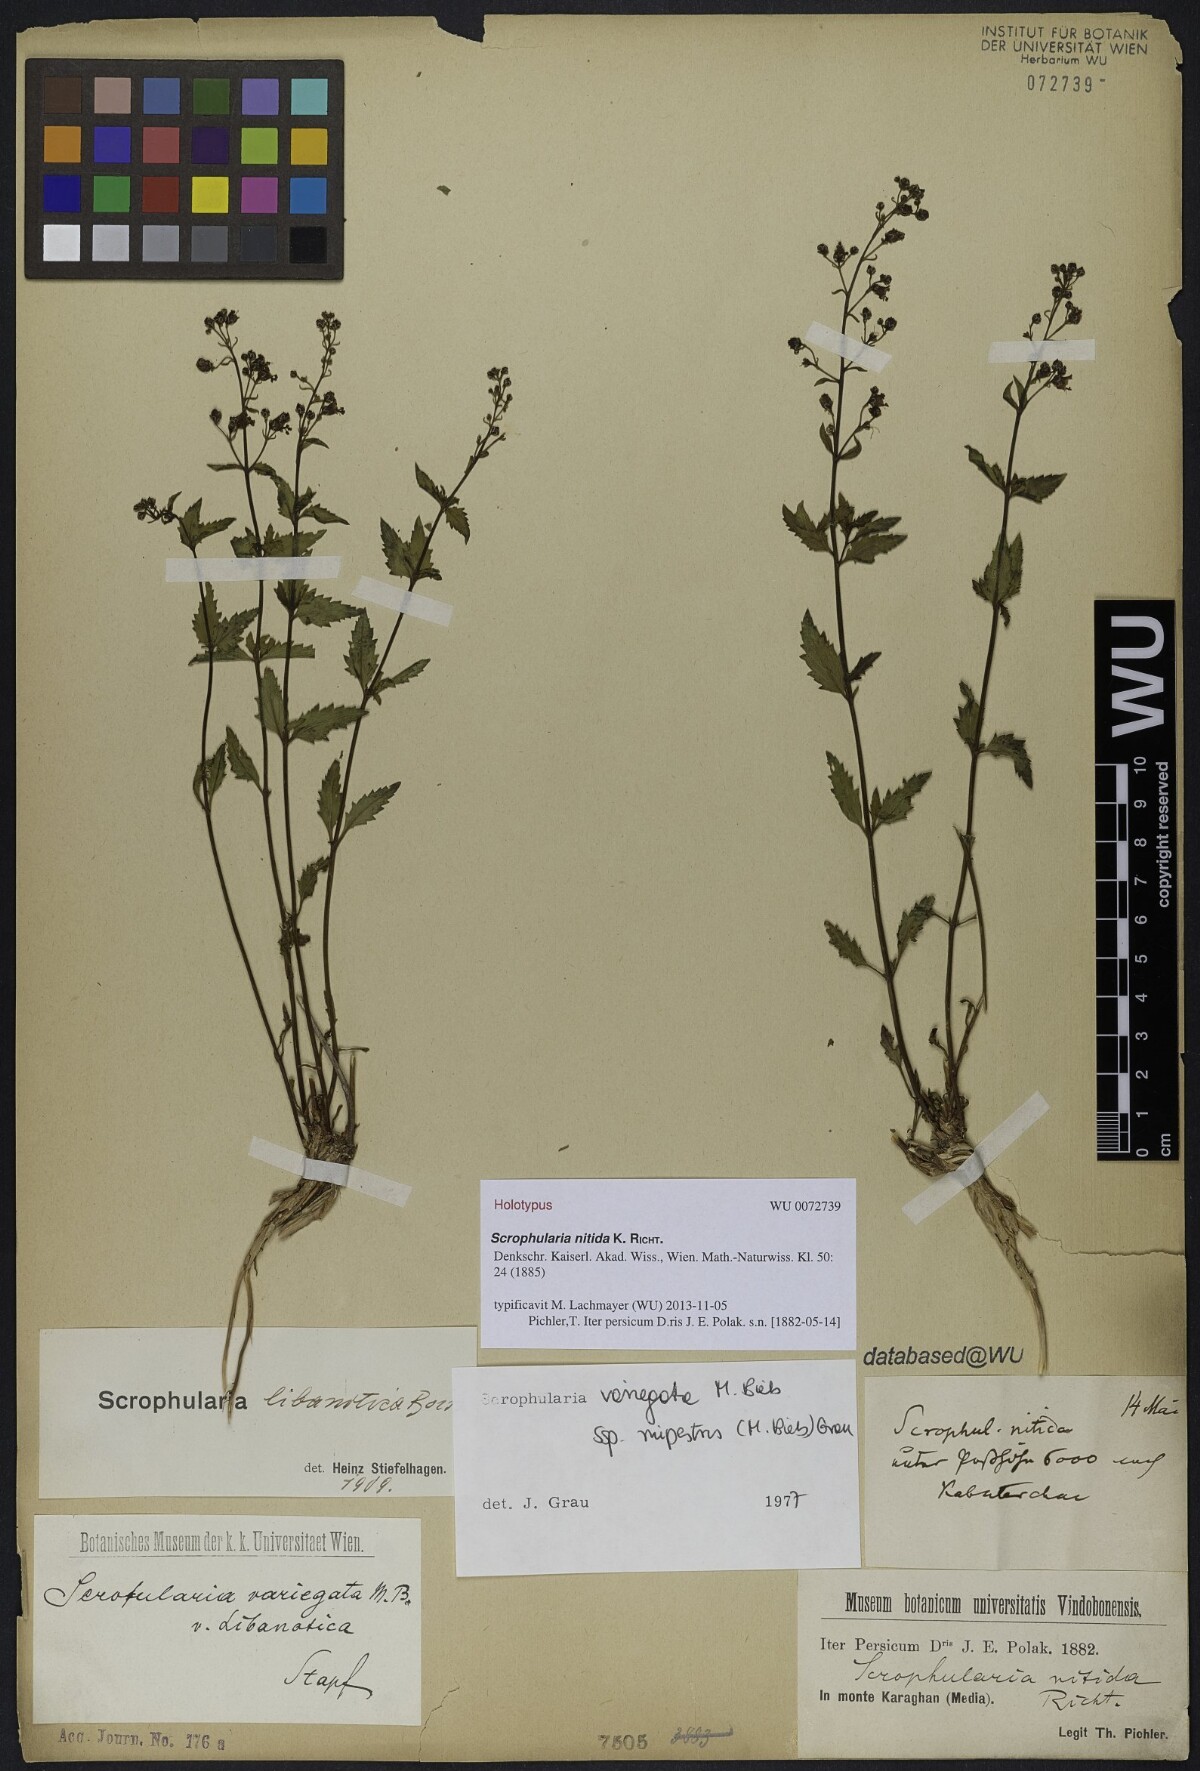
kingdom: Plantae
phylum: Tracheophyta
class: Magnoliopsida
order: Lamiales
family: Scrophulariaceae
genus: Scrophularia
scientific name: Scrophularia rupestris
